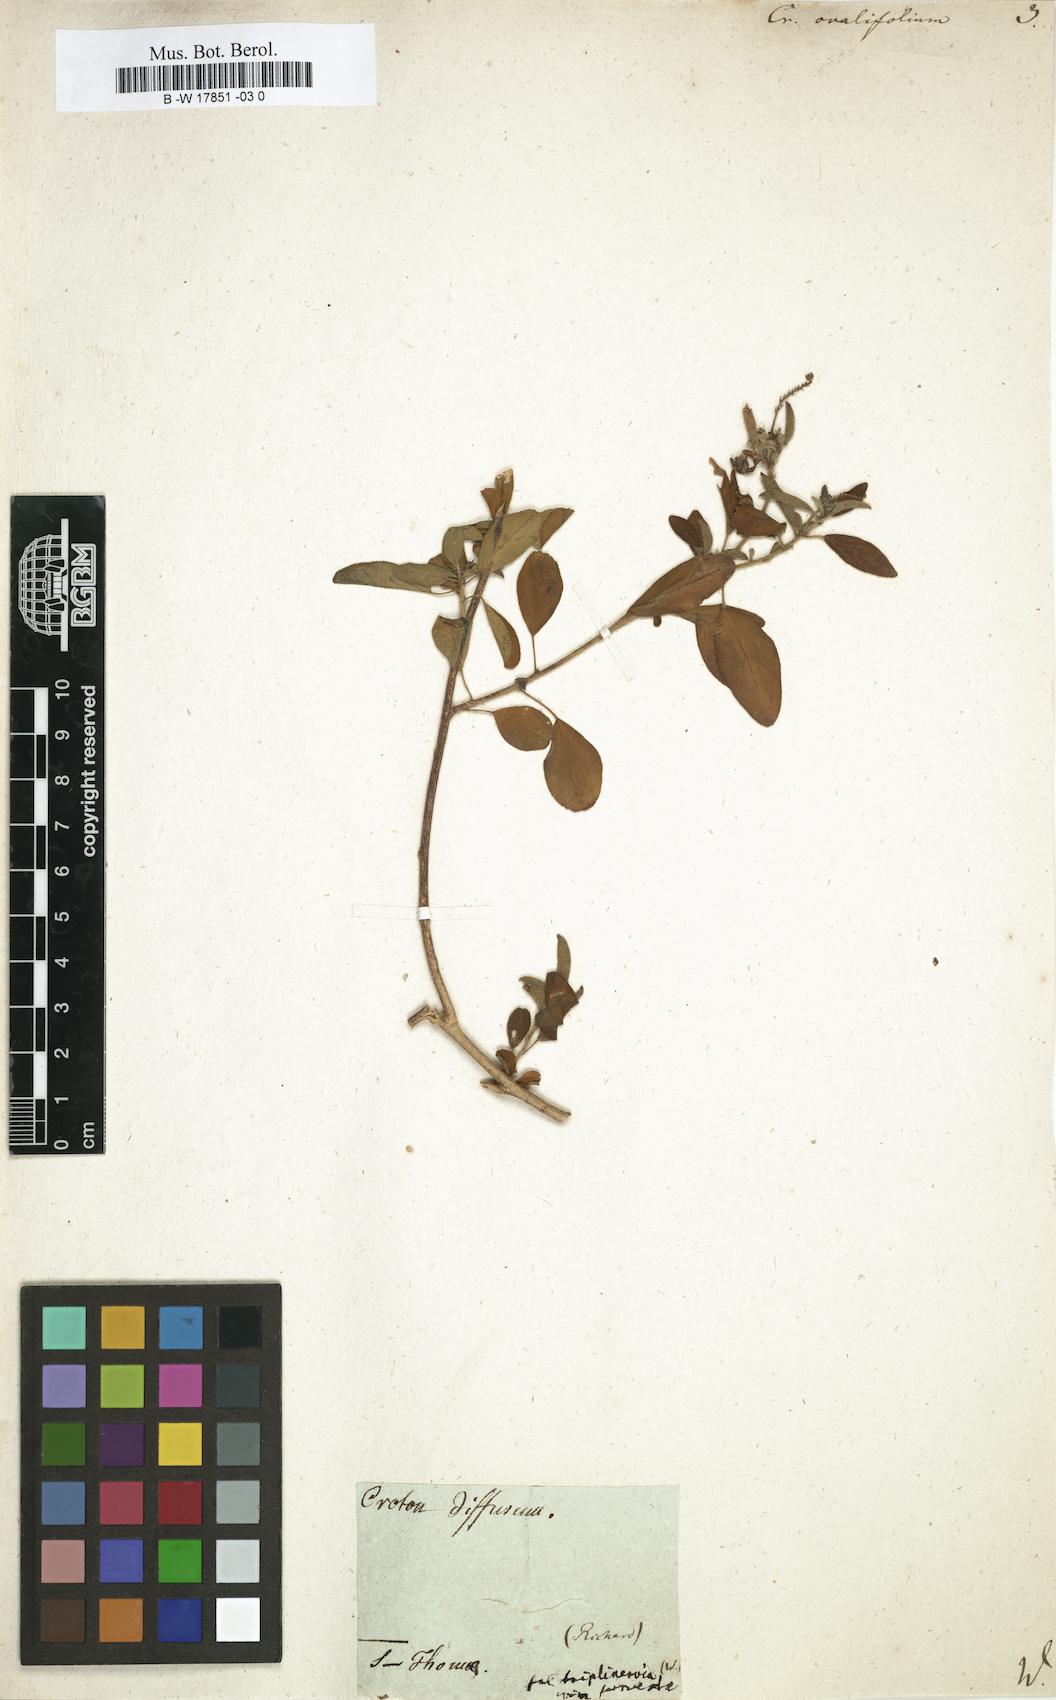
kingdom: Plantae
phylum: Tracheophyta
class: Magnoliopsida
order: Malpighiales
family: Euphorbiaceae
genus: Croton
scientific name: Croton ovalifolius
